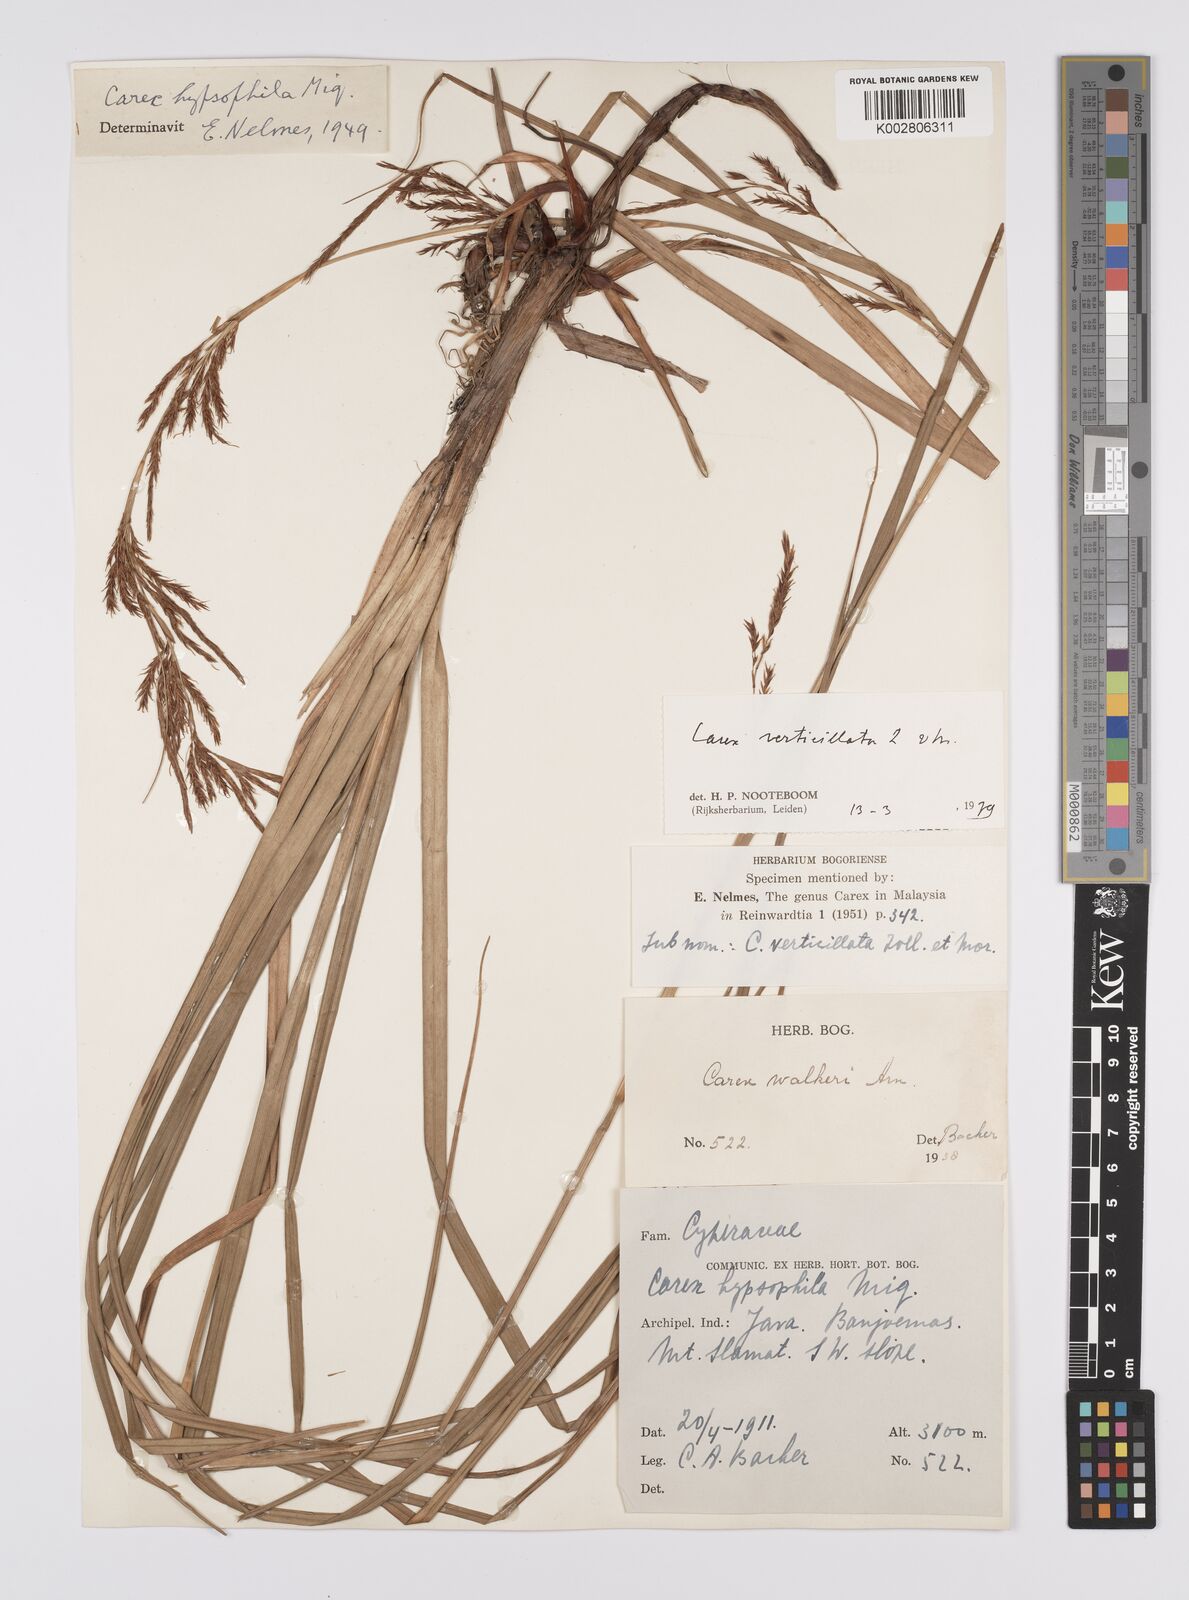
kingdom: Plantae
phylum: Tracheophyta
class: Liliopsida
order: Poales
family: Cyperaceae
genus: Carex
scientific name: Carex verticillata
